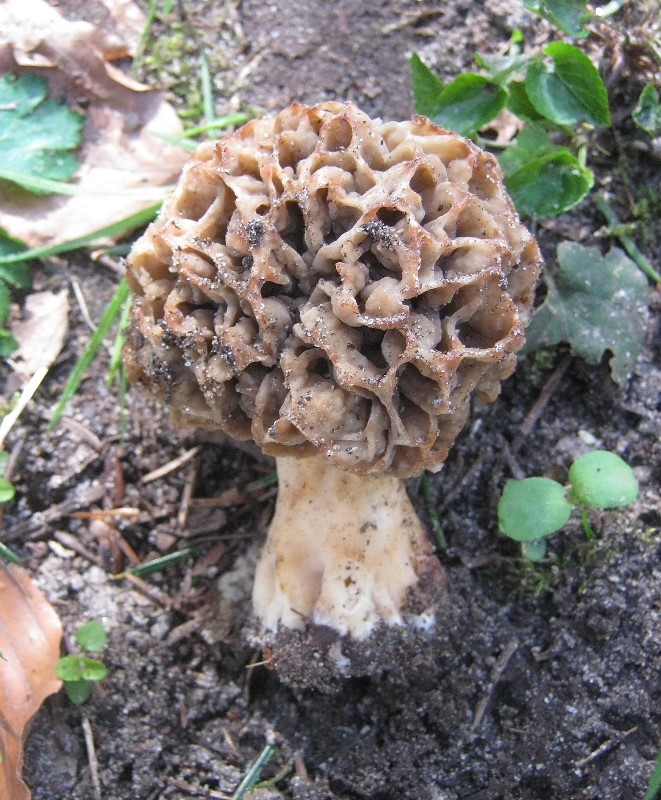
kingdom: Fungi
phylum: Ascomycota
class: Pezizomycetes
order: Pezizales
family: Morchellaceae
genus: Morchella
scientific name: Morchella esculenta
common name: almindelig morkel
